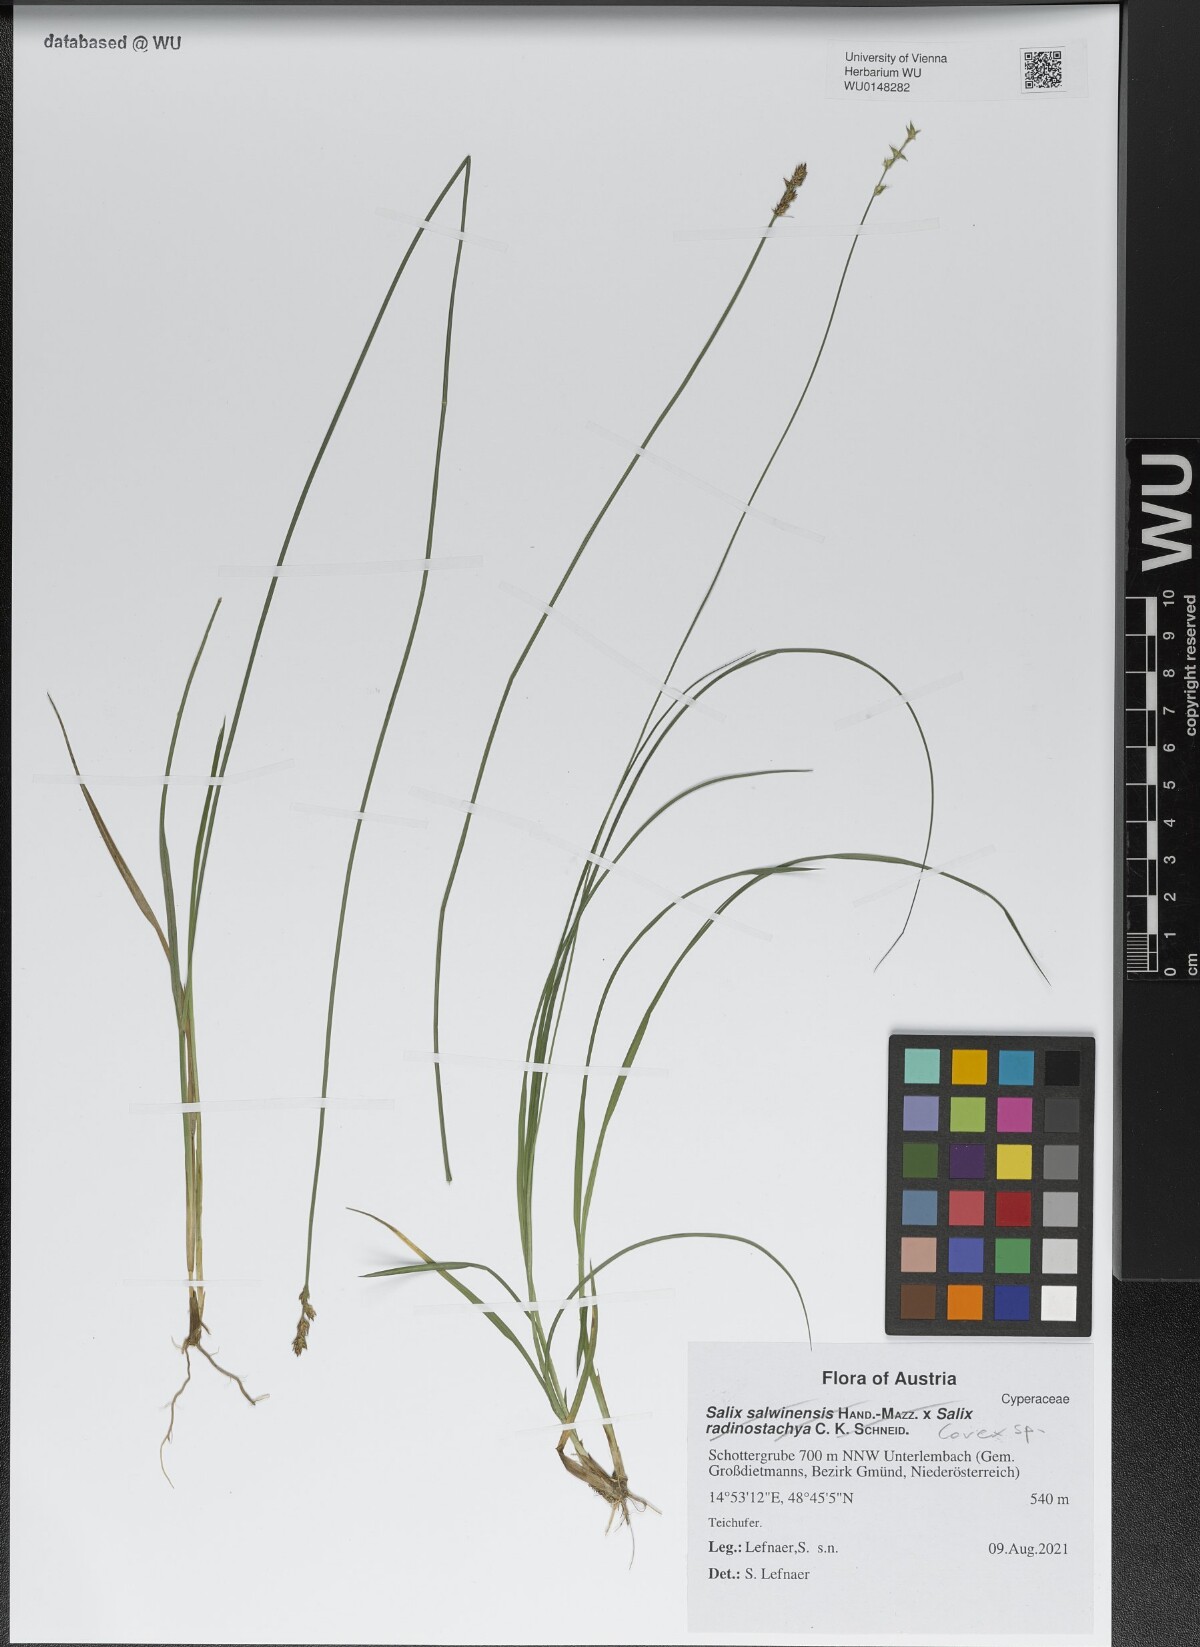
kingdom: Plantae
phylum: Tracheophyta
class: Liliopsida
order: Poales
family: Cyperaceae
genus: Carex
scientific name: Carex
